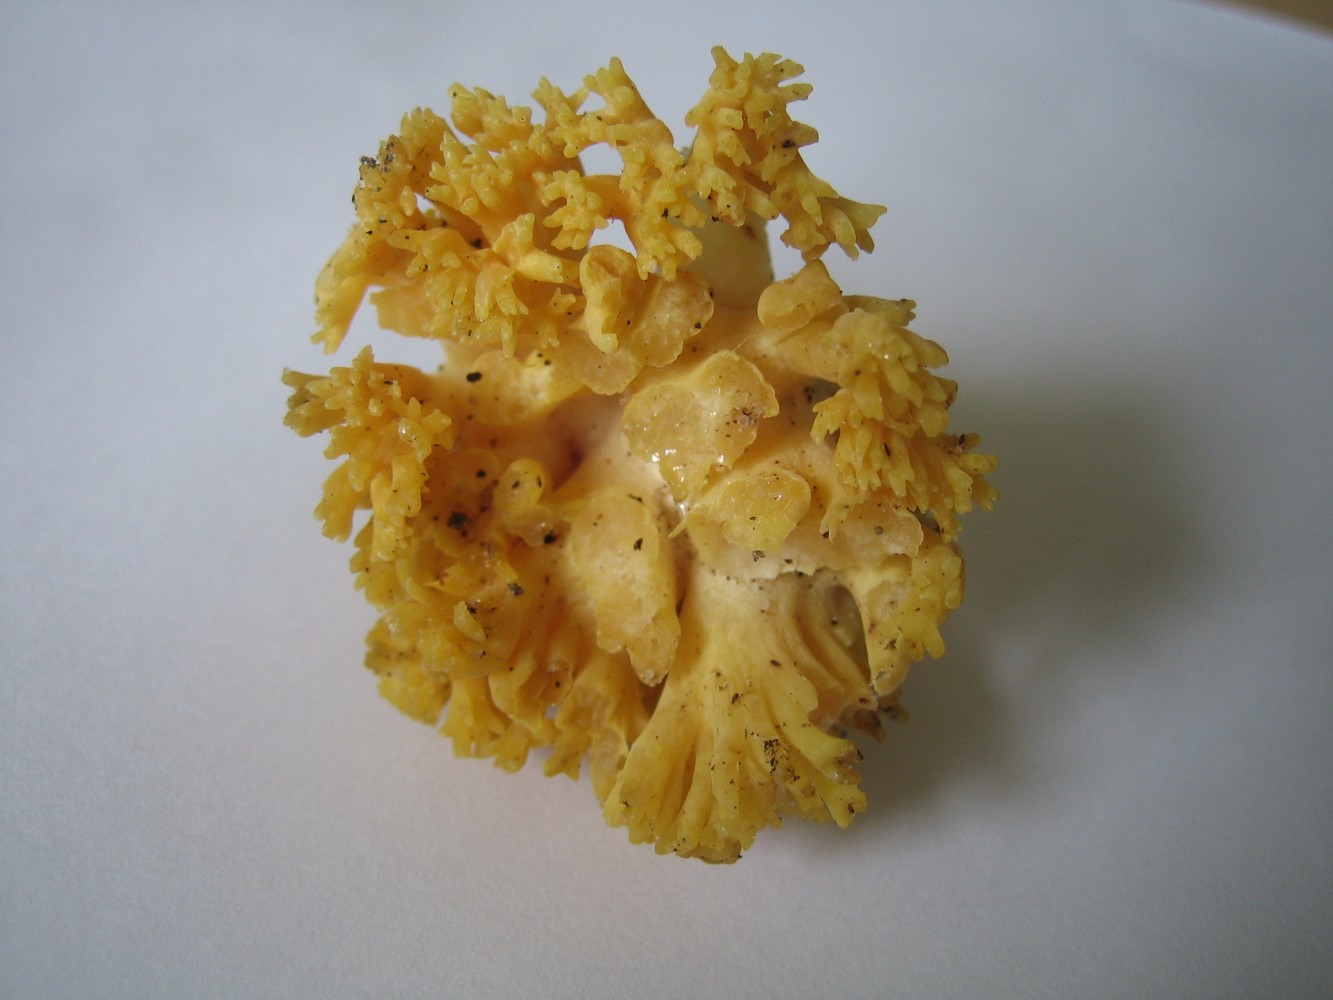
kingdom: Fungi
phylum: Basidiomycota
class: Agaricomycetes
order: Gomphales
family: Gomphaceae
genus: Ramaria
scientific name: Ramaria
